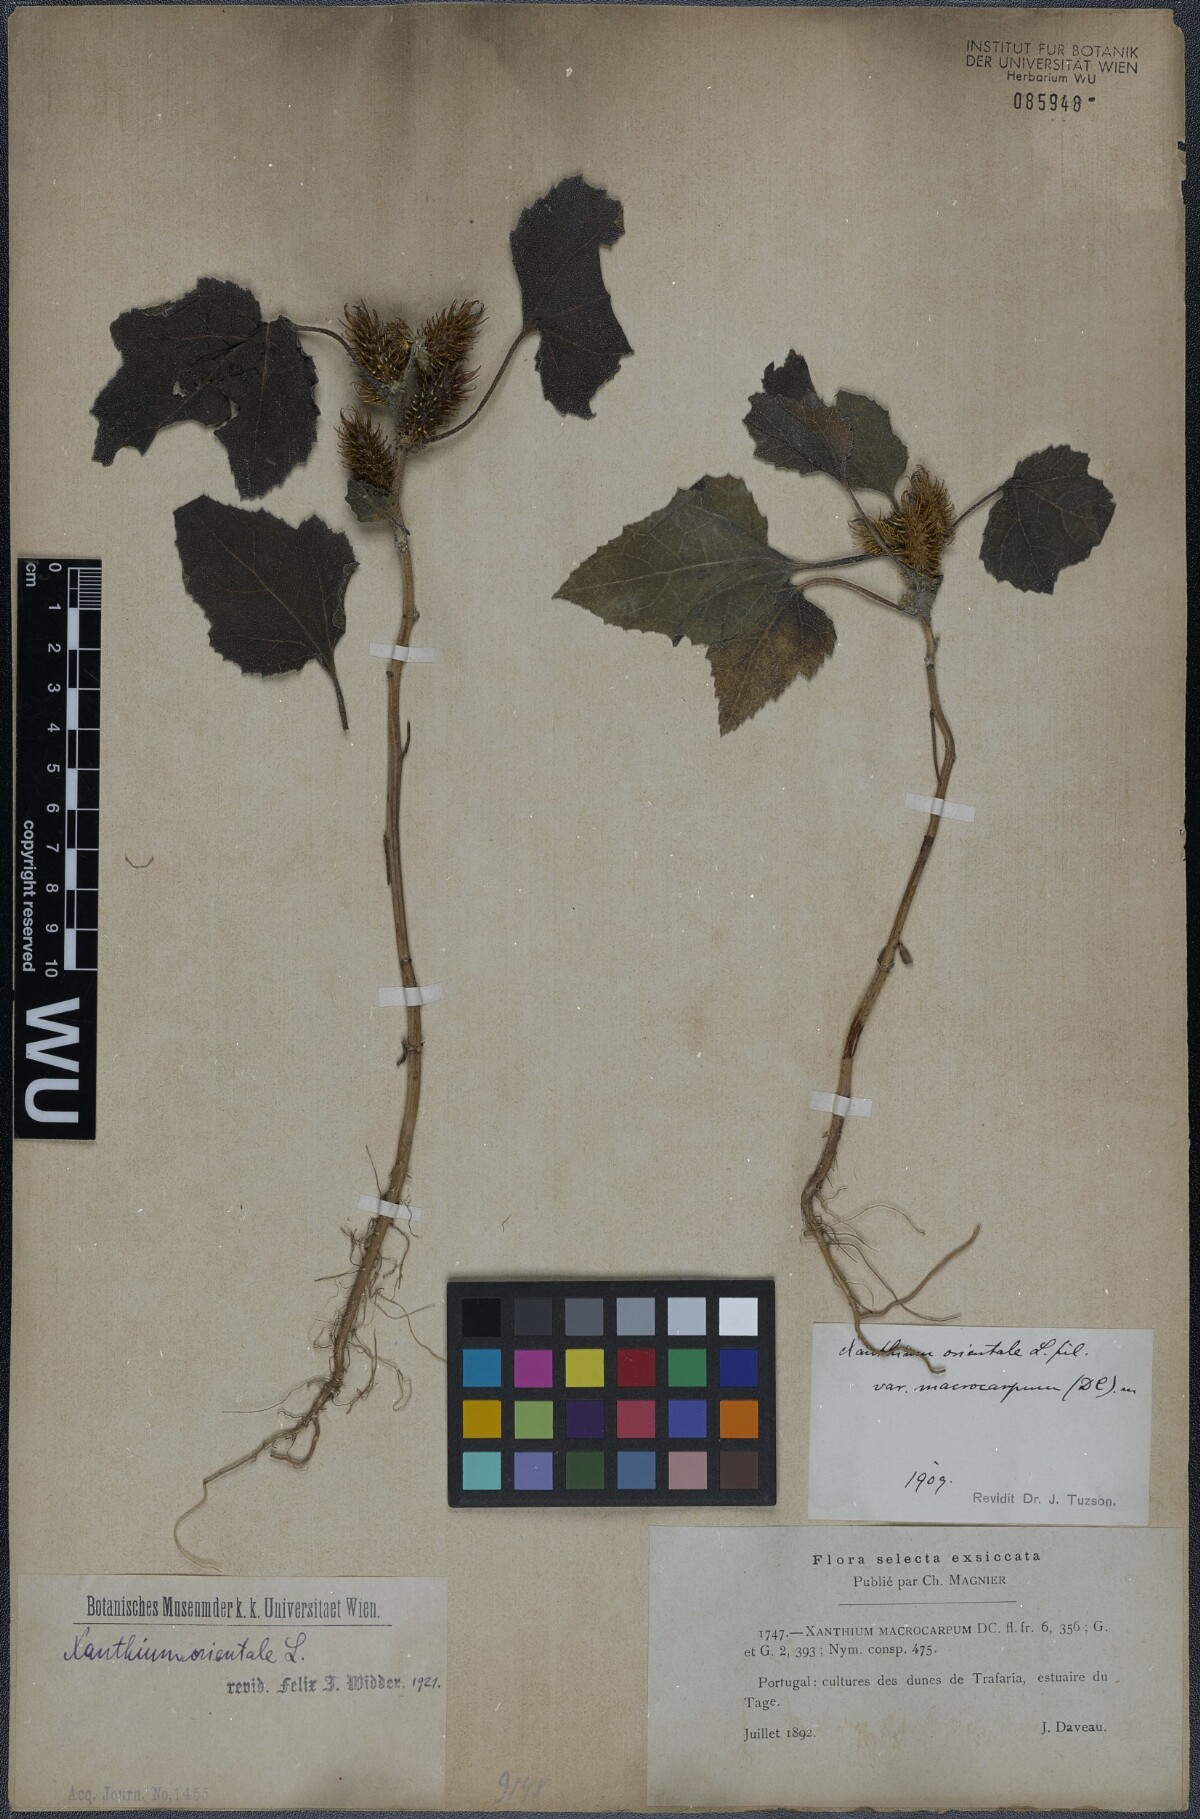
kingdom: Plantae
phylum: Tracheophyta
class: Magnoliopsida
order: Asterales
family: Asteraceae
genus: Xanthium
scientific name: Xanthium orientale
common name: Californian burr
